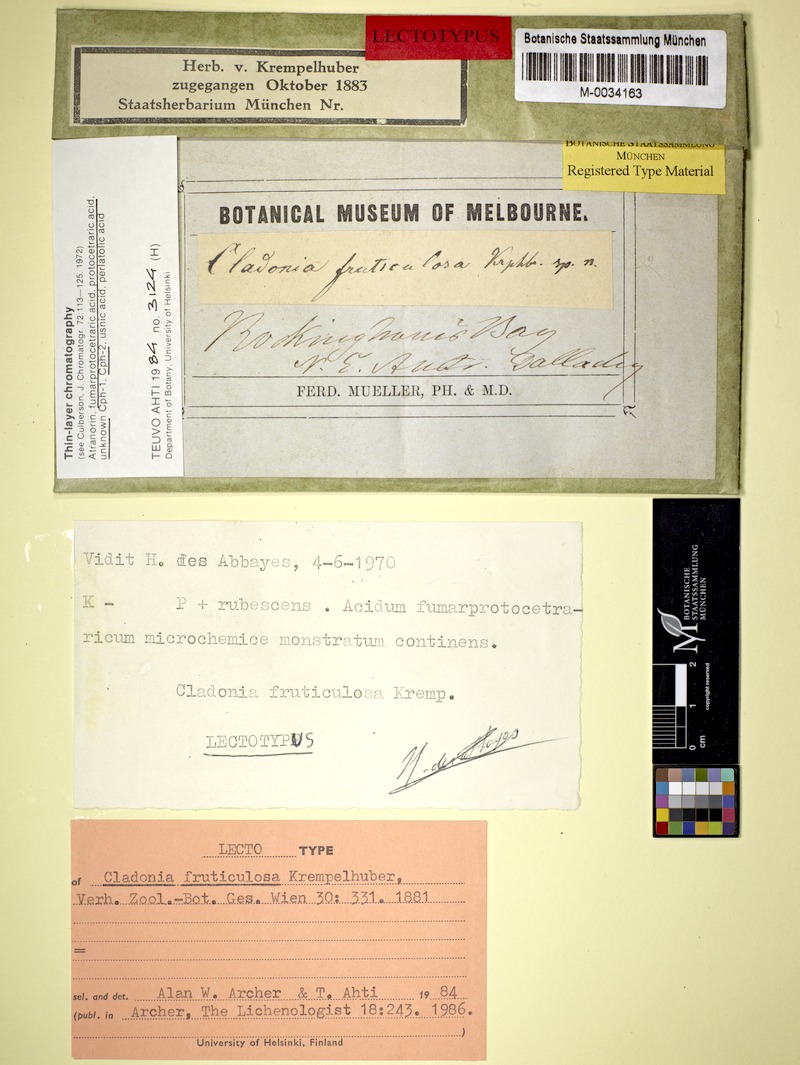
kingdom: Fungi
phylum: Ascomycota
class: Lecanoromycetes
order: Lecanorales
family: Cladoniaceae
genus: Cladonia
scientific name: Cladonia fruticulosa
